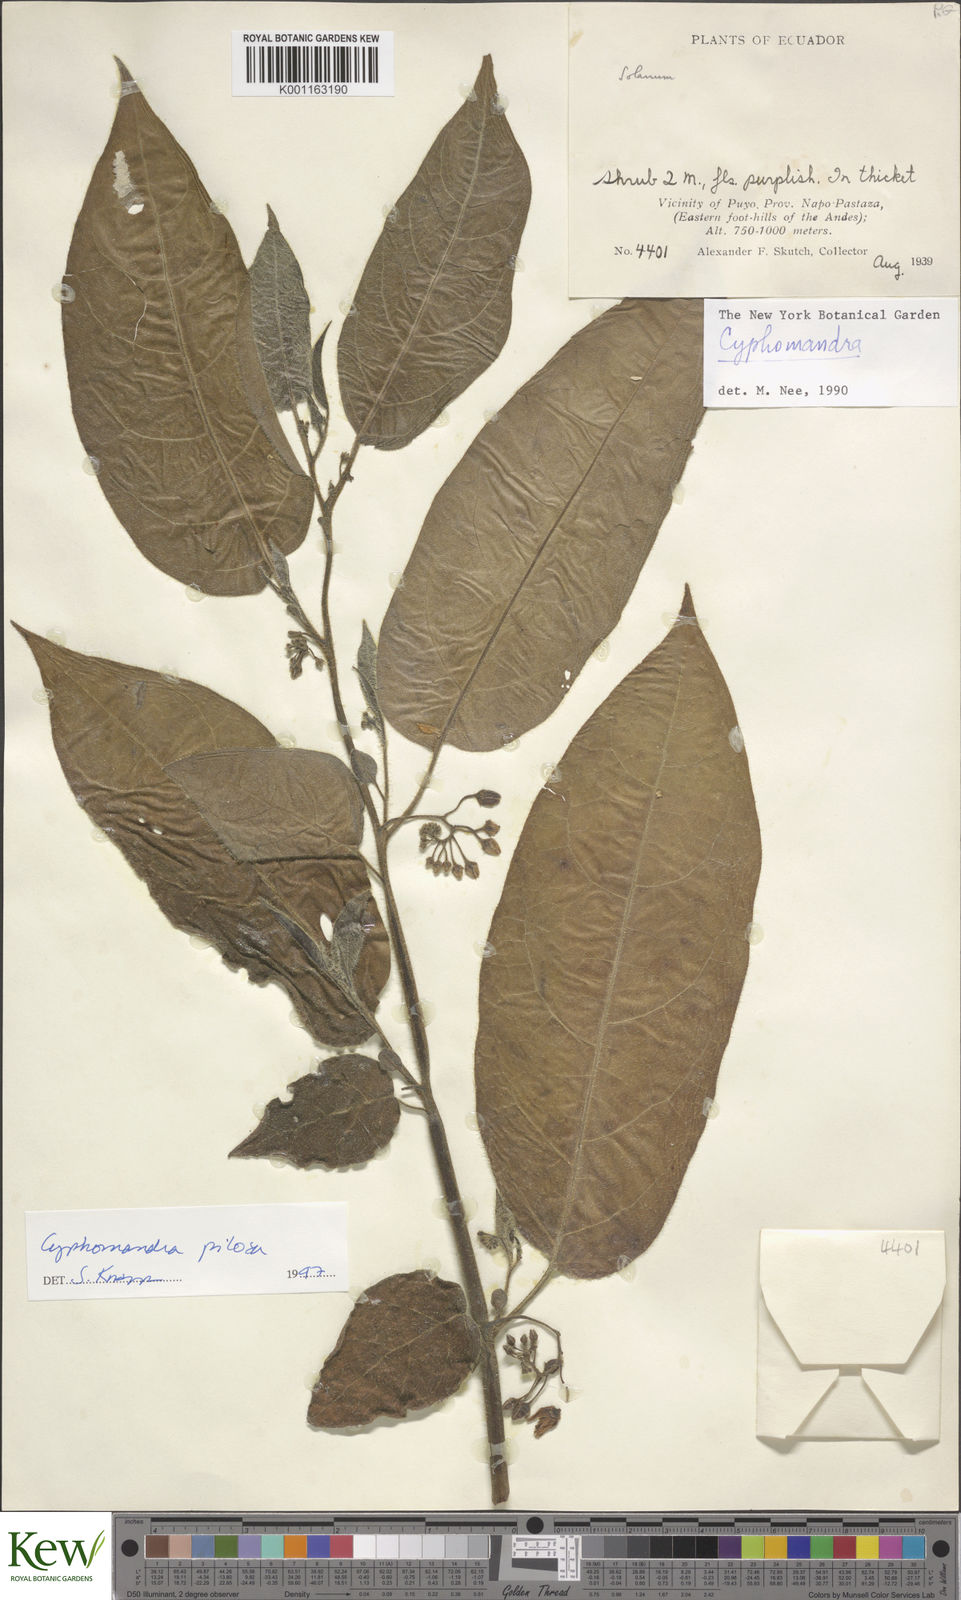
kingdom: Plantae
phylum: Tracheophyta
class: Magnoliopsida
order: Solanales
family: Solanaceae
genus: Solanum
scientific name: Solanum calidum
